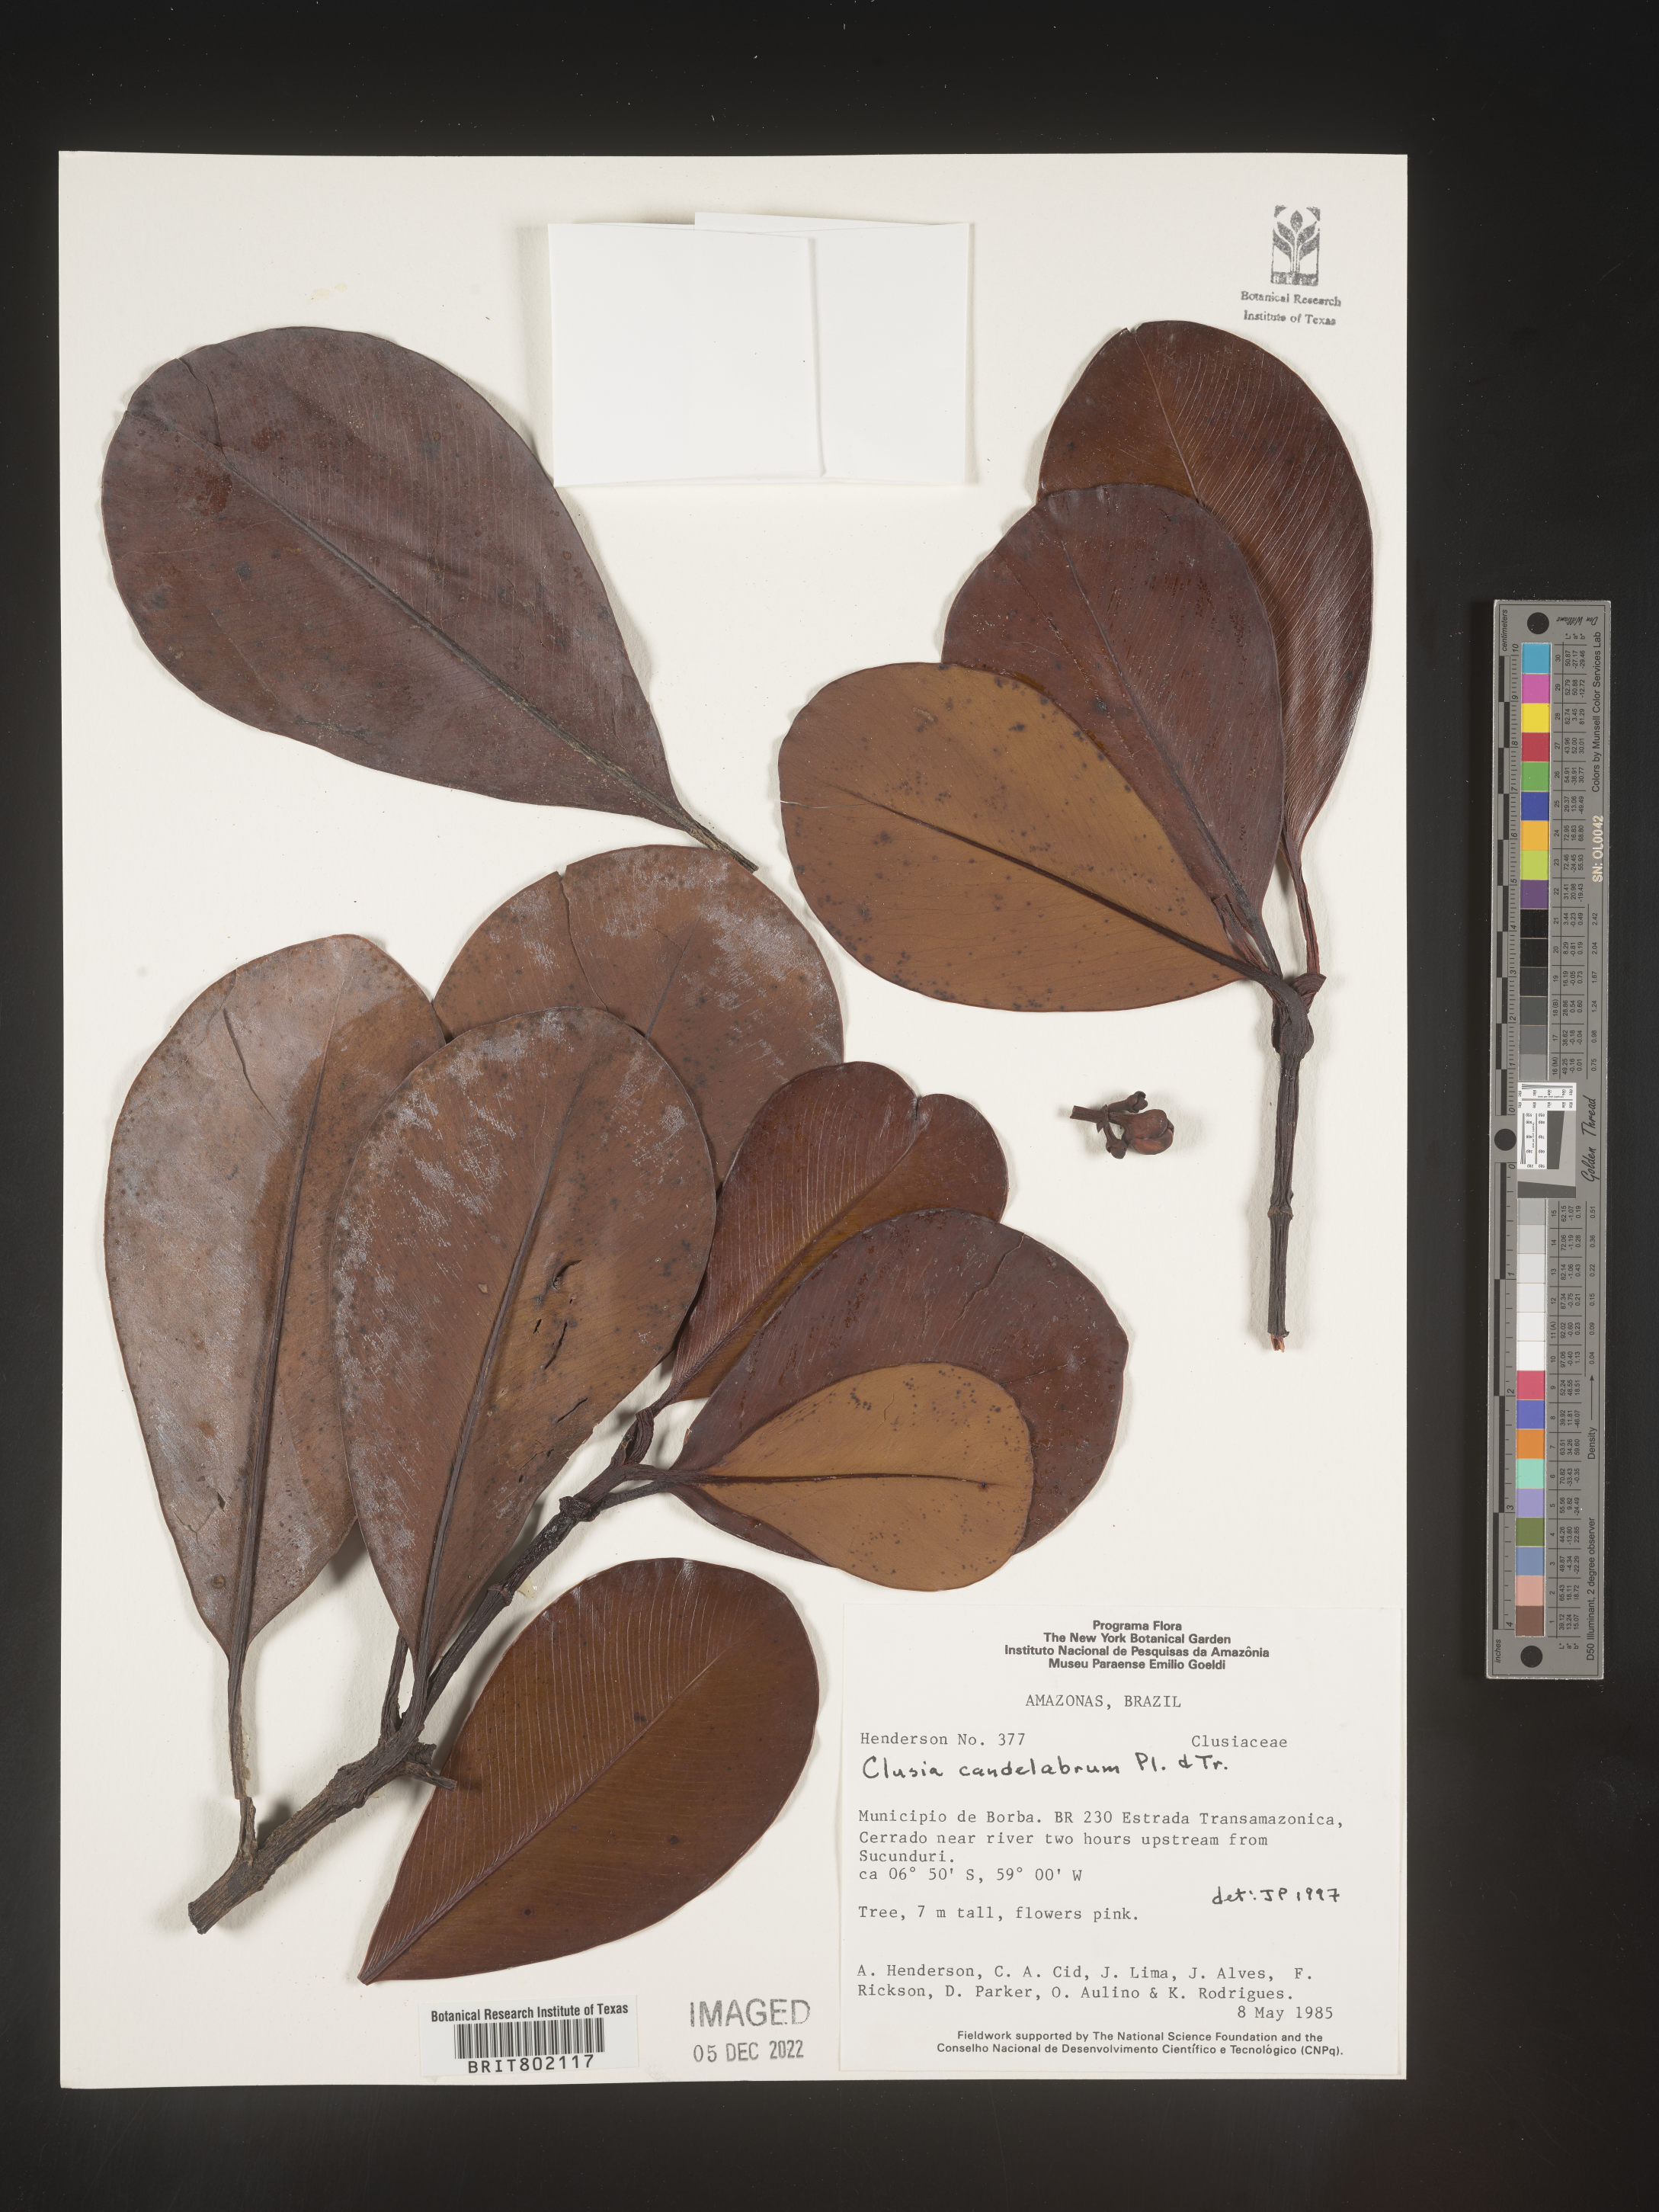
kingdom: Plantae
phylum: Tracheophyta
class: Magnoliopsida
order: Malpighiales
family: Clusiaceae
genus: Clusia
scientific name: Clusia candelabrum
